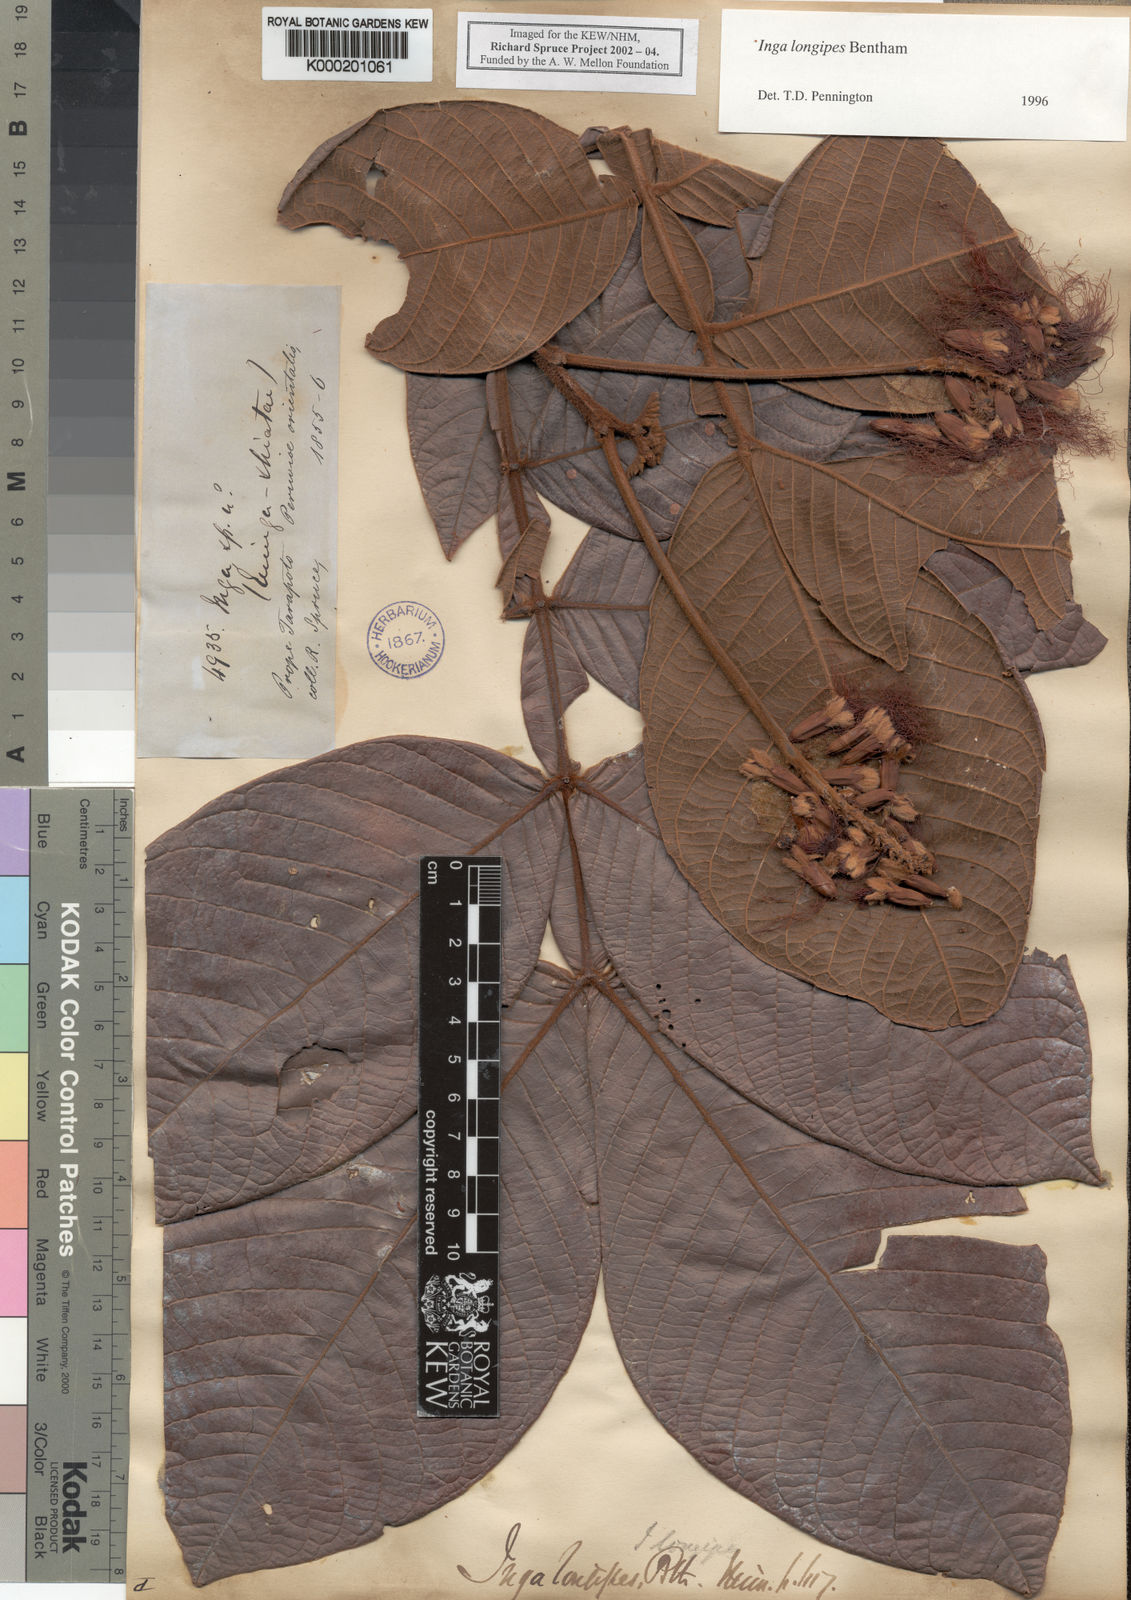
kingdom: Plantae
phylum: Tracheophyta
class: Magnoliopsida
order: Fabales
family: Fabaceae
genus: Inga
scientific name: Inga longipes
